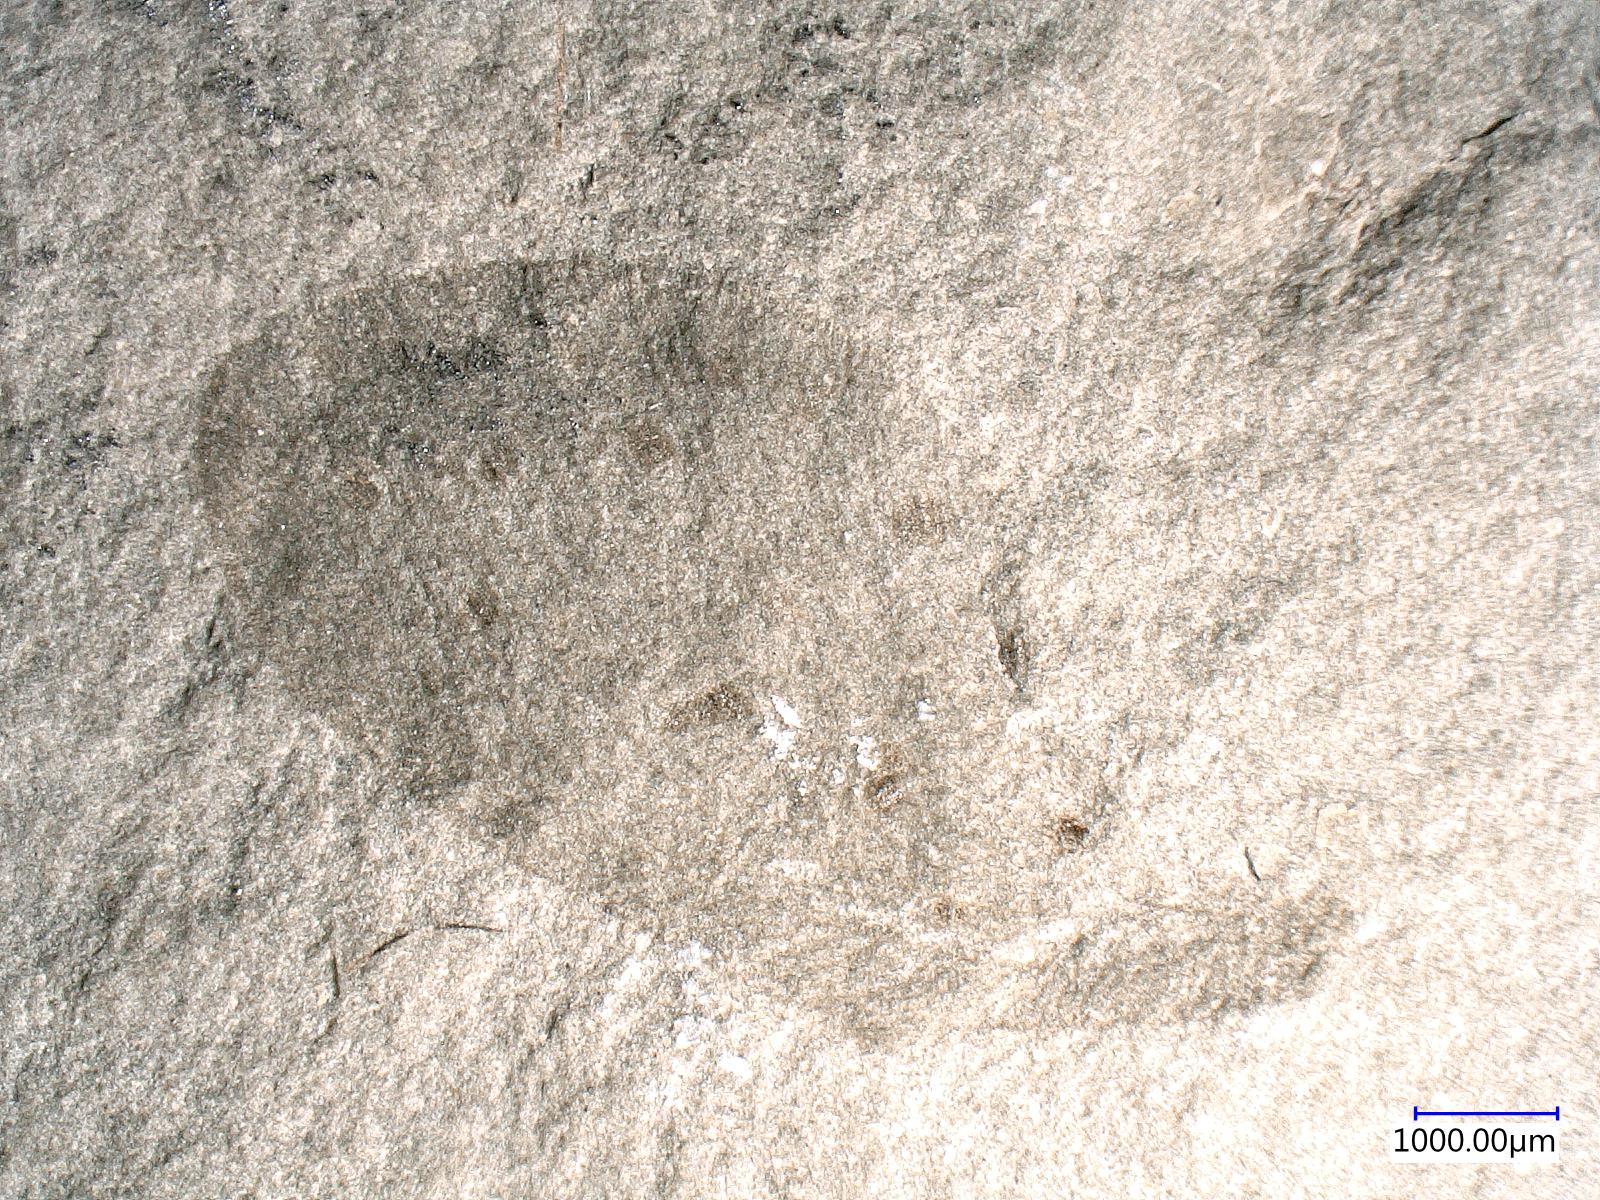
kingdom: Animalia
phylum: Arthropoda
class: Insecta
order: Neuroptera
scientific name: Neuroptera
